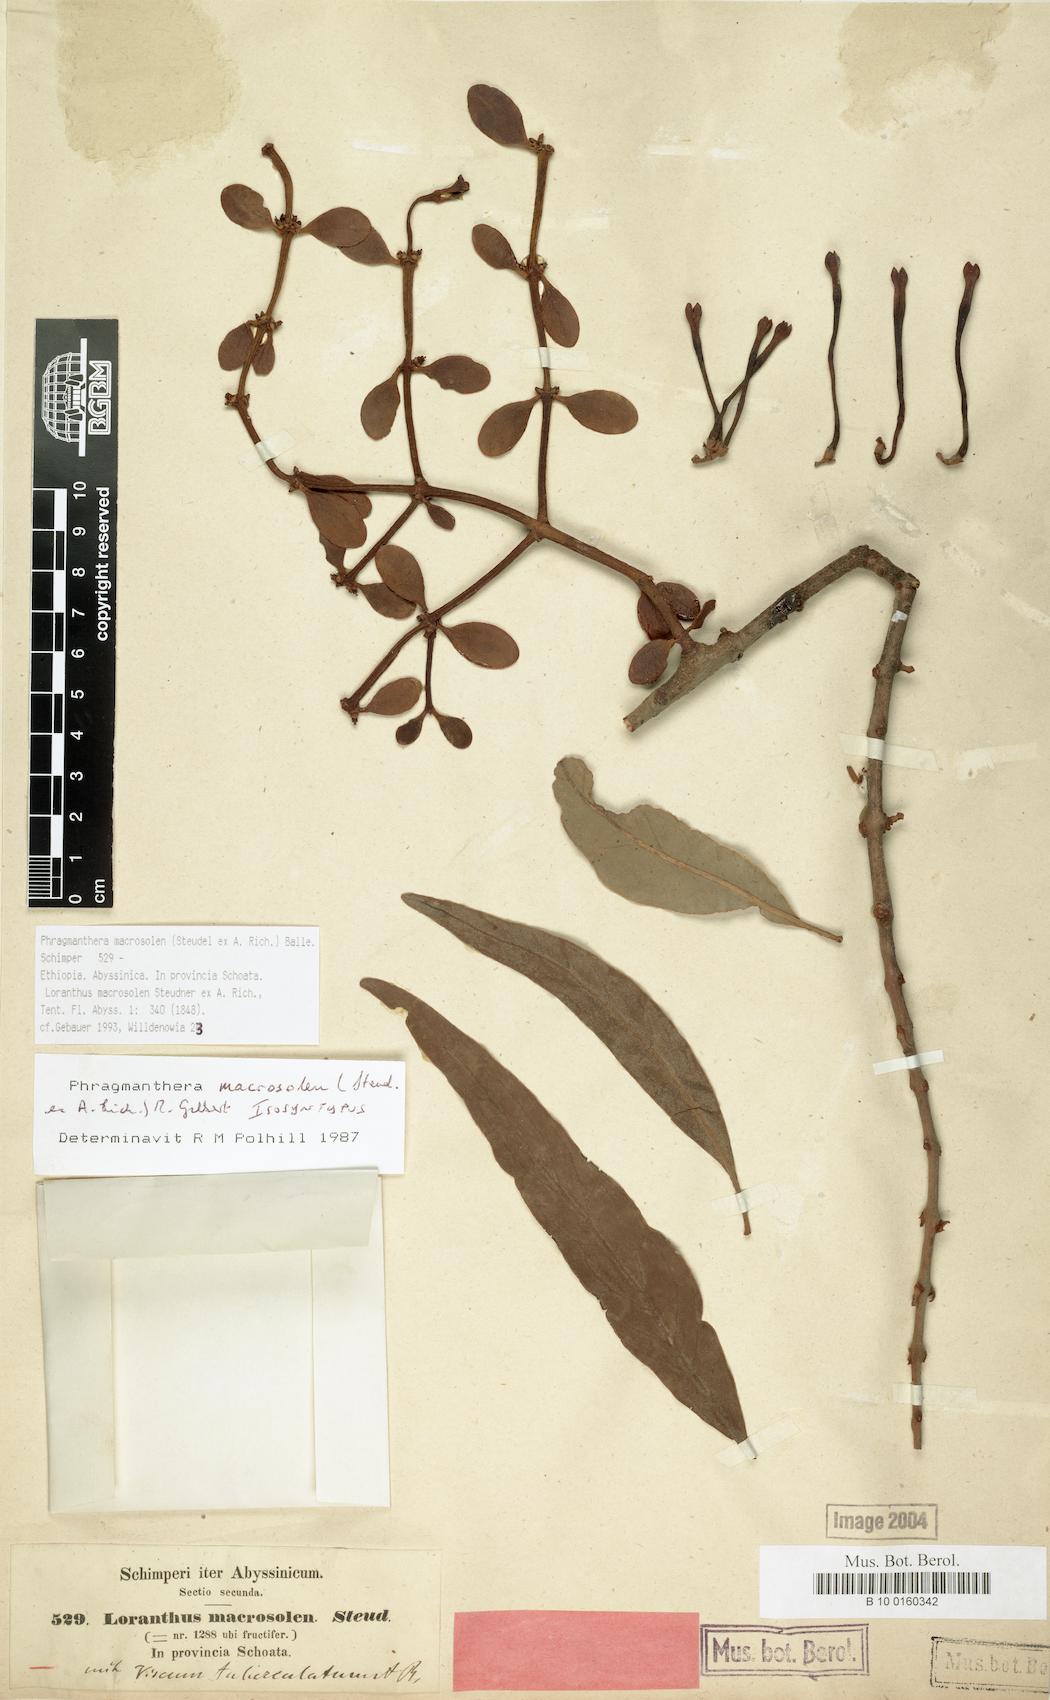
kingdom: Plantae
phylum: Tracheophyta
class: Magnoliopsida
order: Santalales
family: Loranthaceae
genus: Phragmanthera
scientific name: Phragmanthera macrosolen
